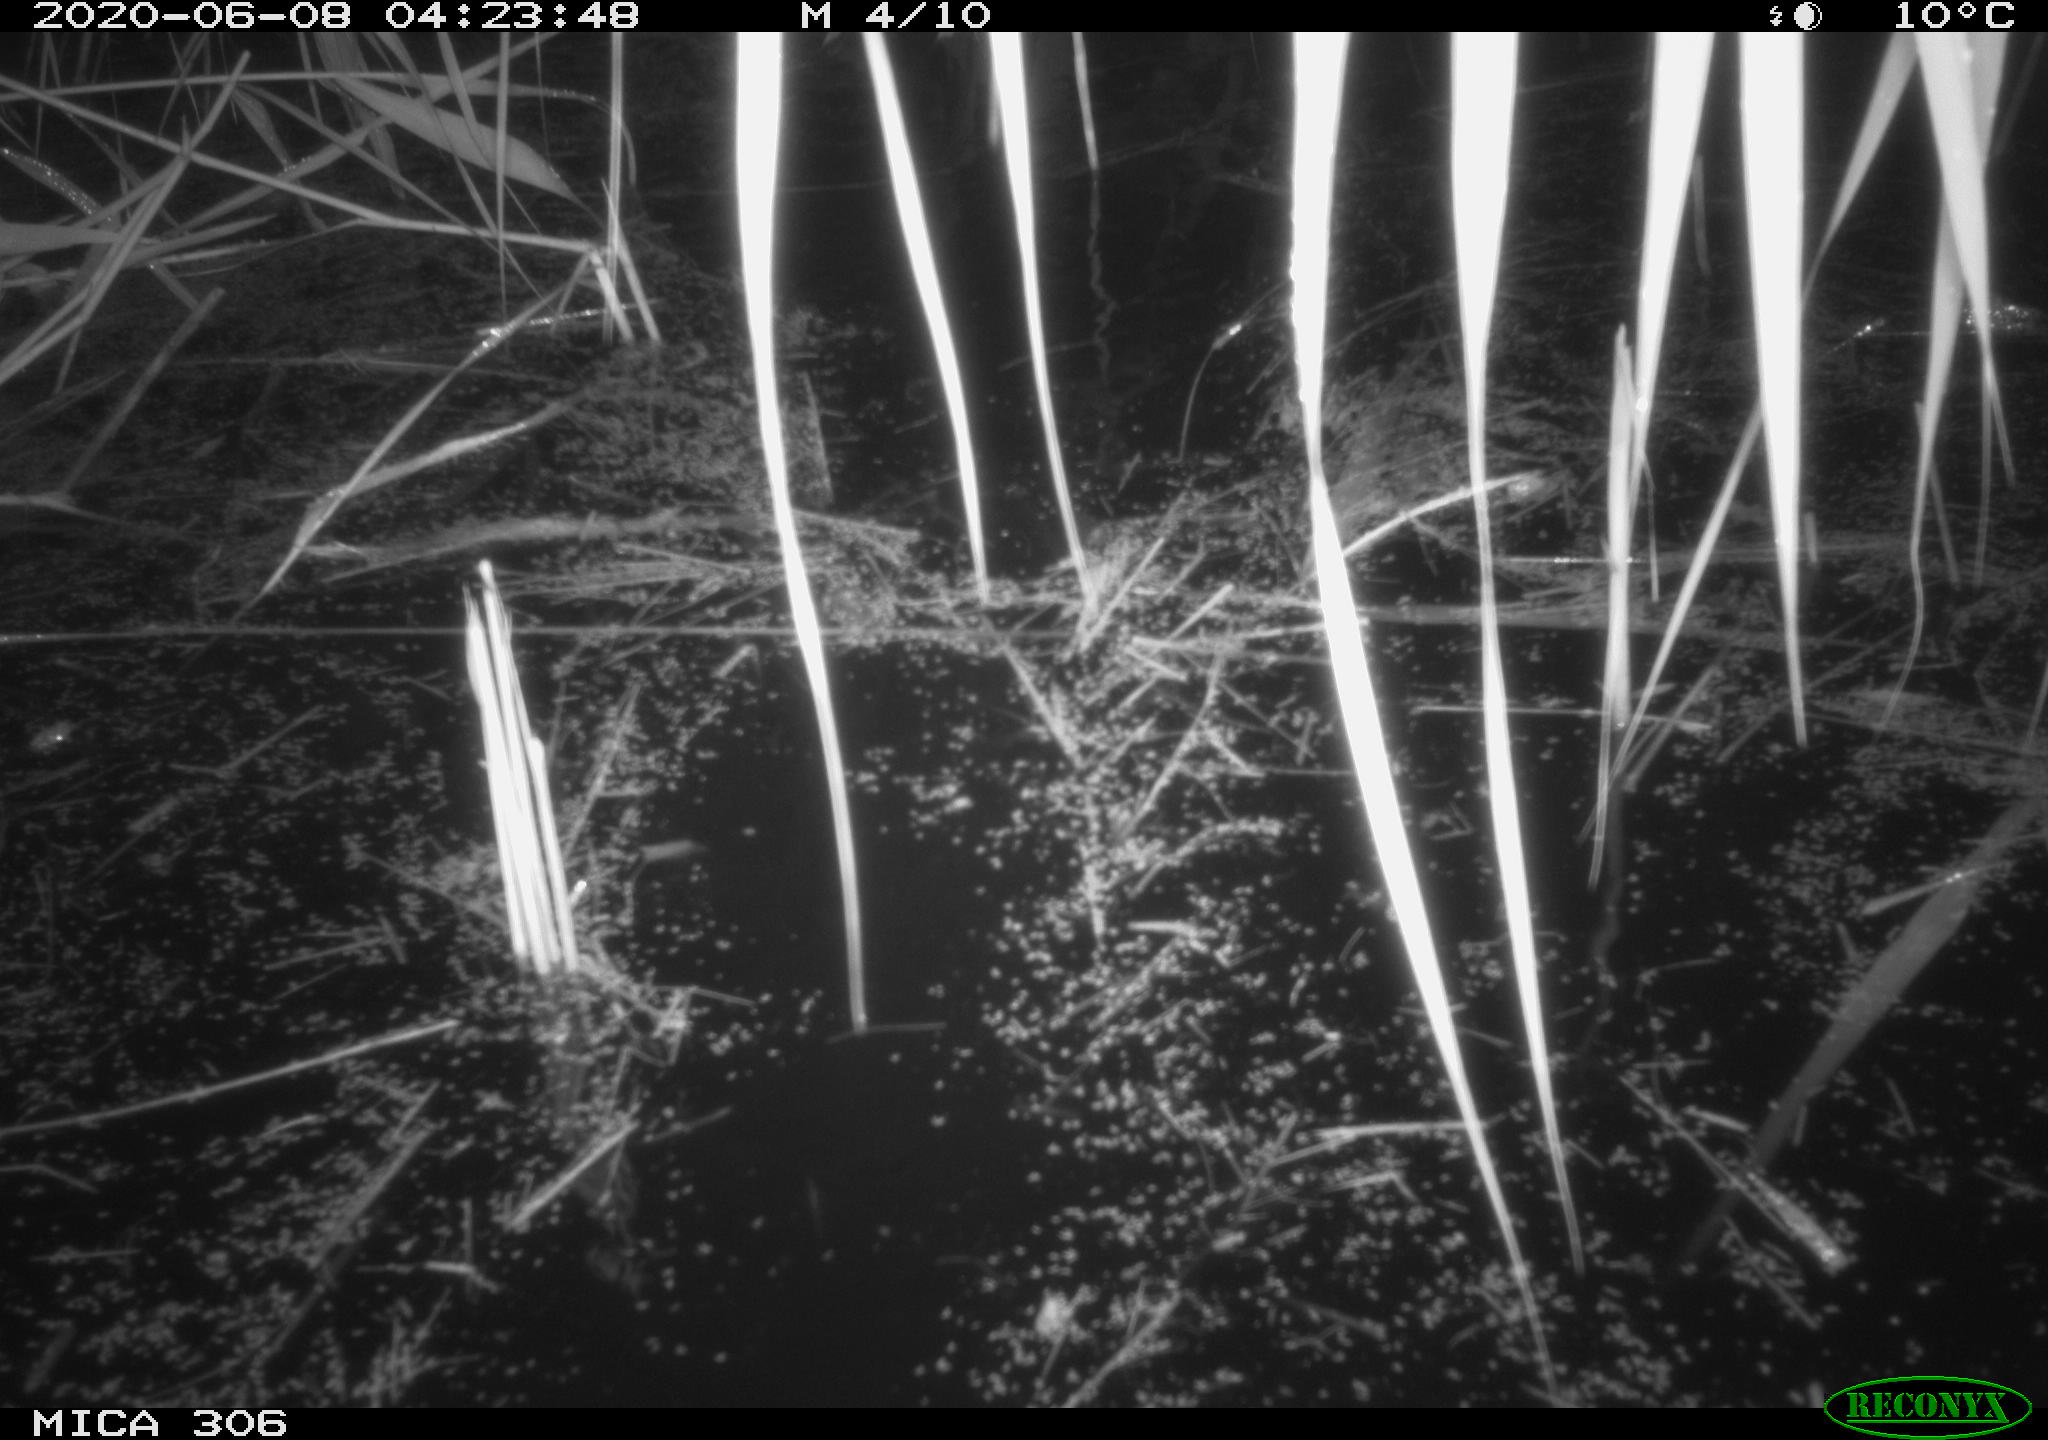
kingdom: Animalia
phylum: Chordata
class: Mammalia
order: Rodentia
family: Muridae
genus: Rattus
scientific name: Rattus norvegicus
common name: Brown rat
